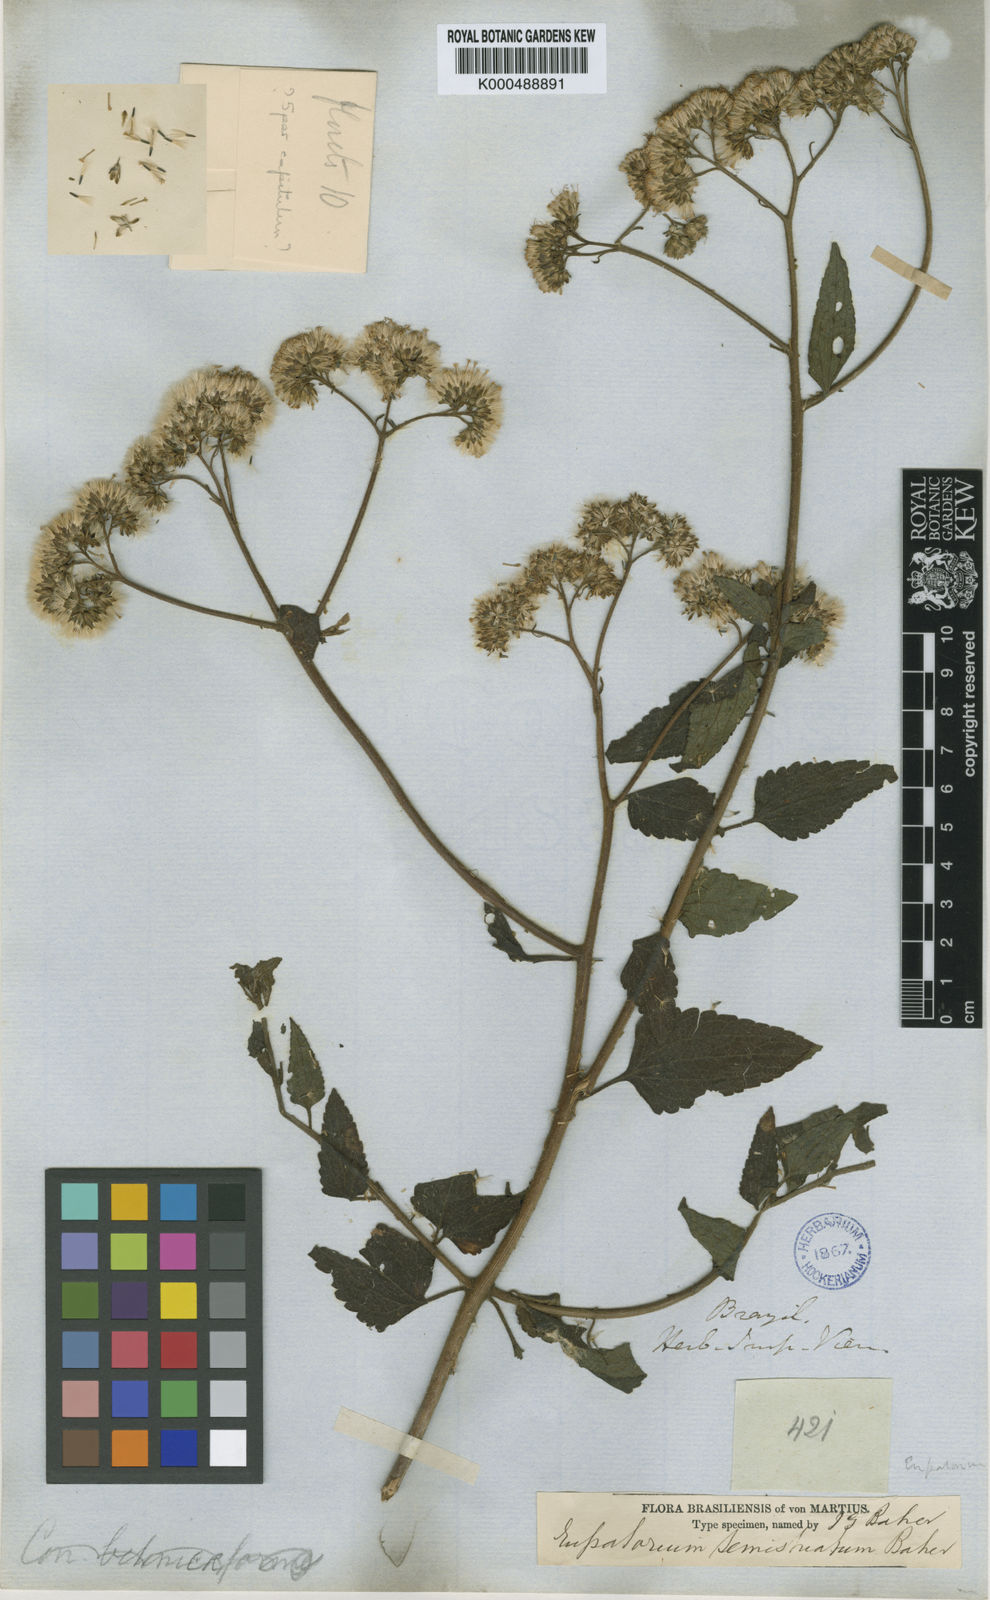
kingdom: Plantae
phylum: Tracheophyta
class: Magnoliopsida
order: Asterales
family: Asteraceae
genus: Bejaranoa
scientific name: Bejaranoa semistriata
